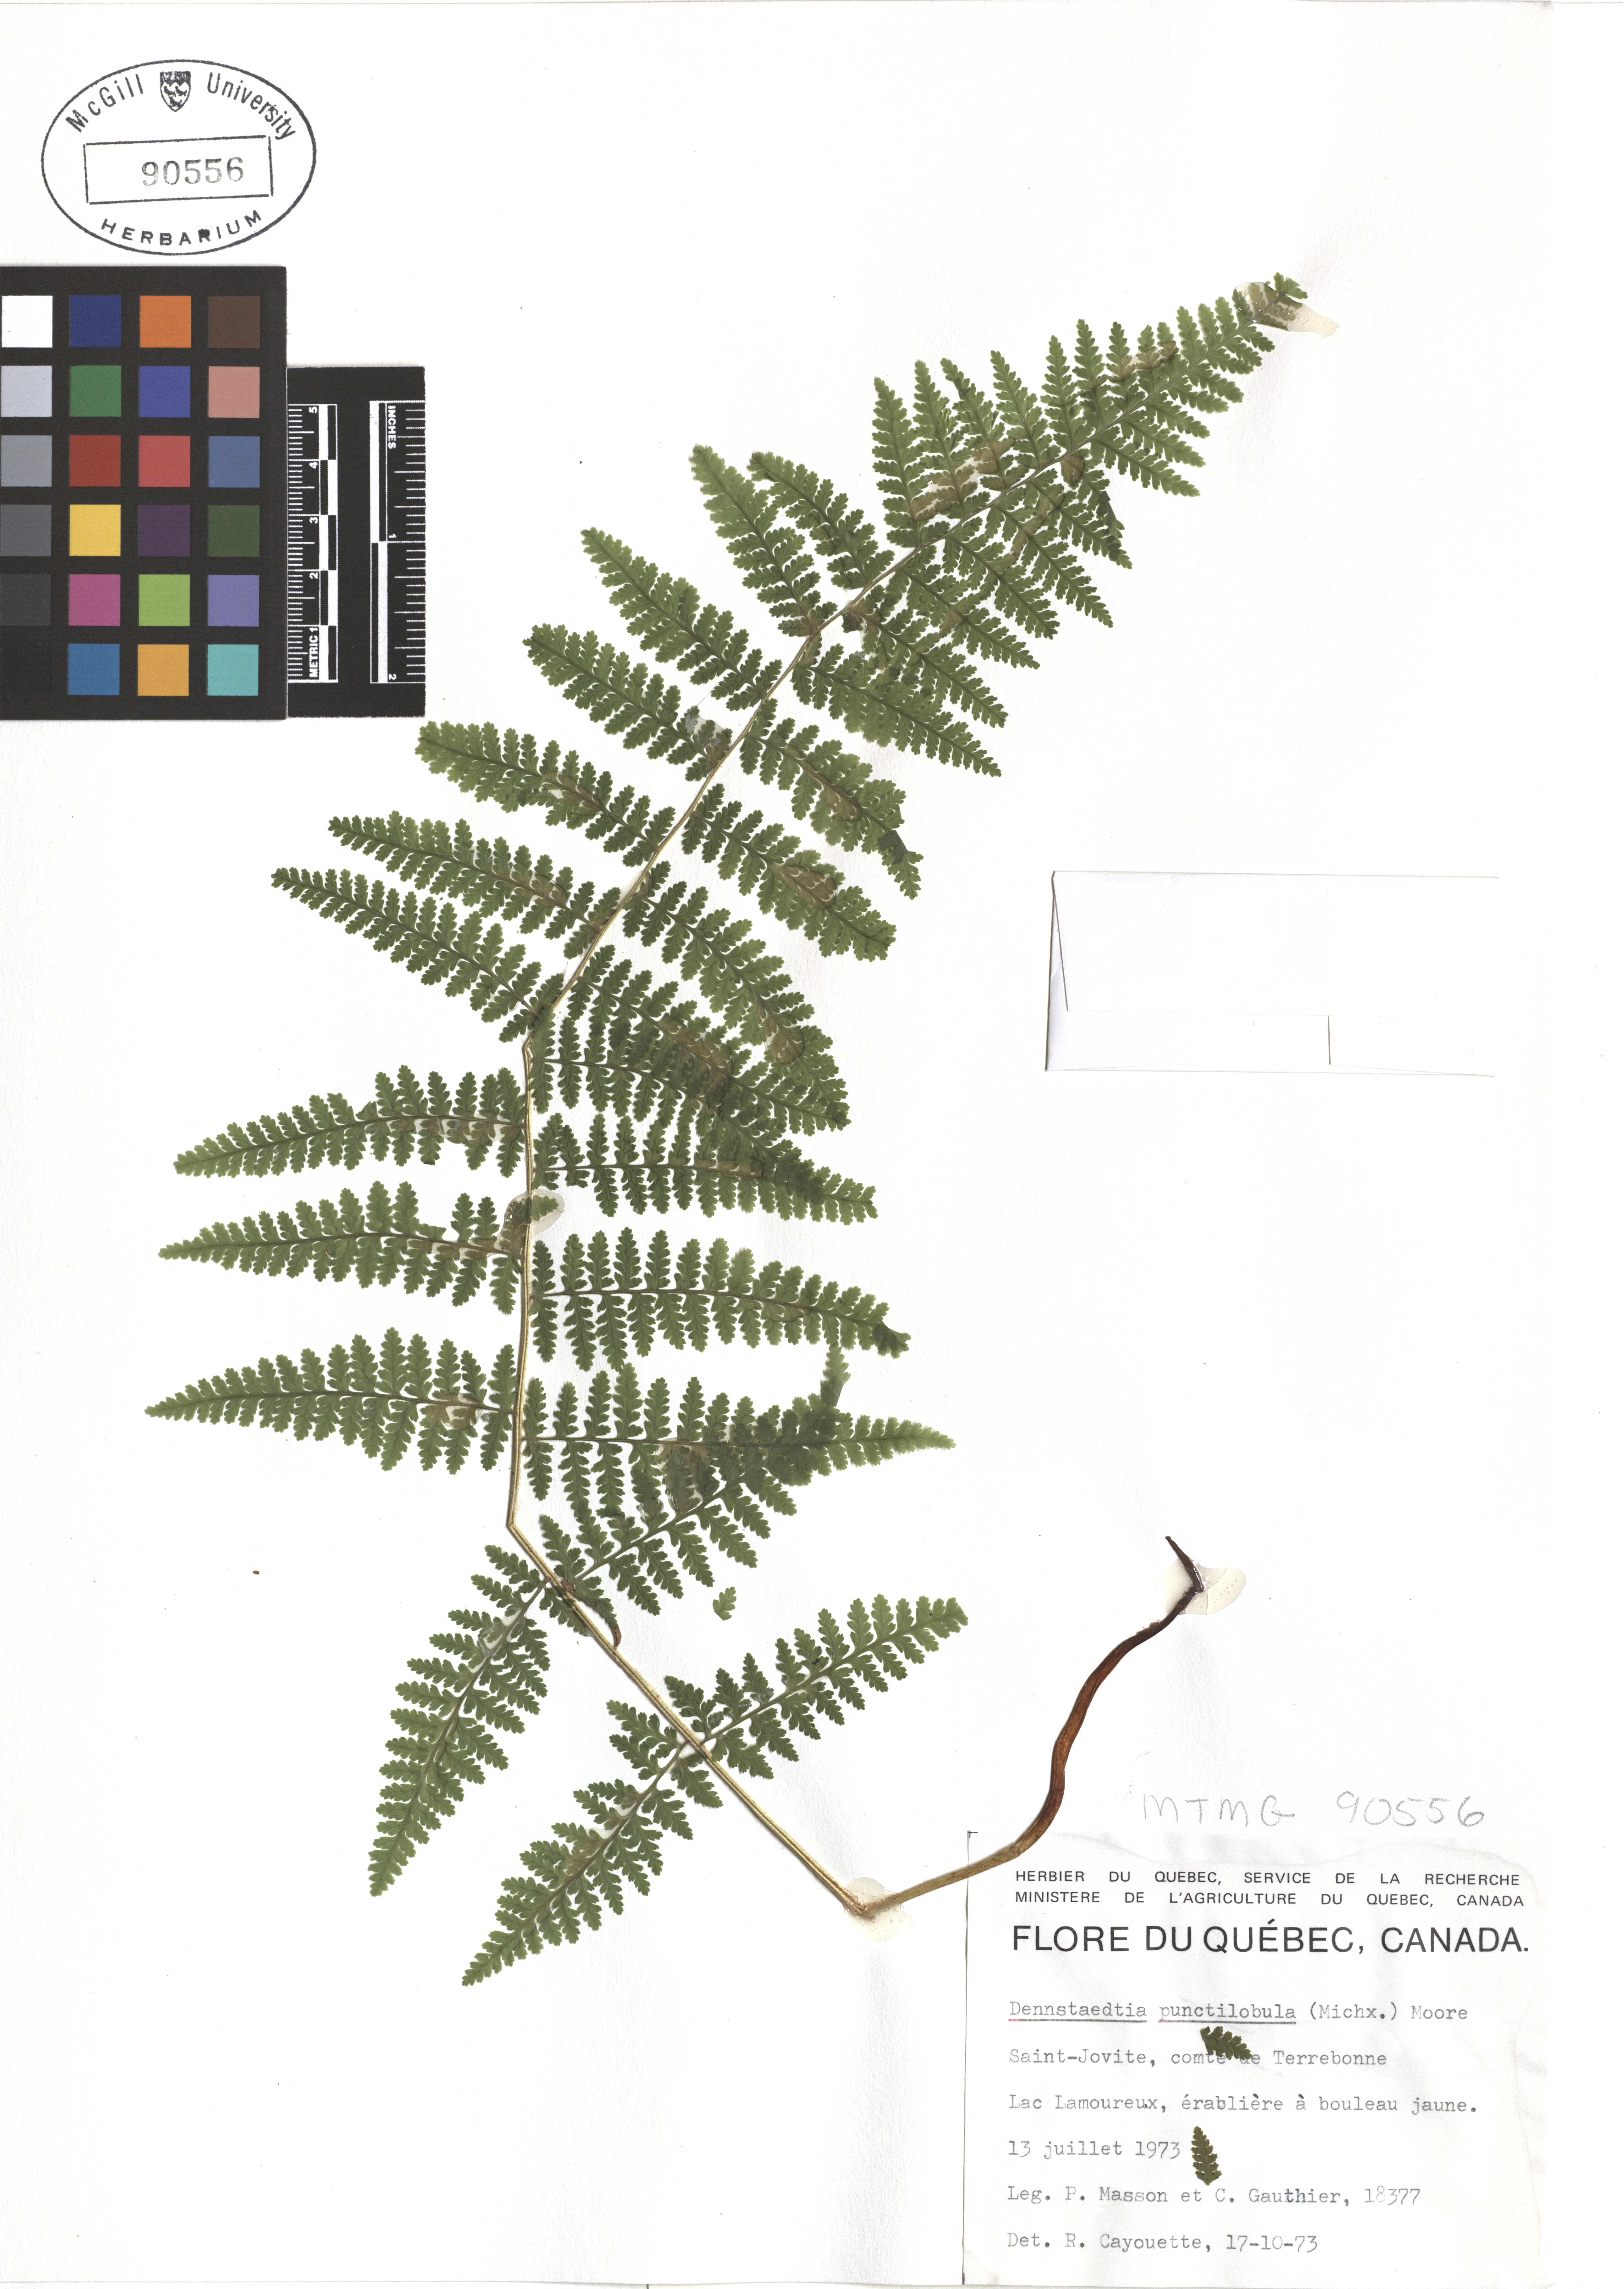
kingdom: Plantae
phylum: Tracheophyta
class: Polypodiopsida
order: Polypodiales
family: Dennstaedtiaceae
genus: Sitobolium
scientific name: Sitobolium punctilobum
